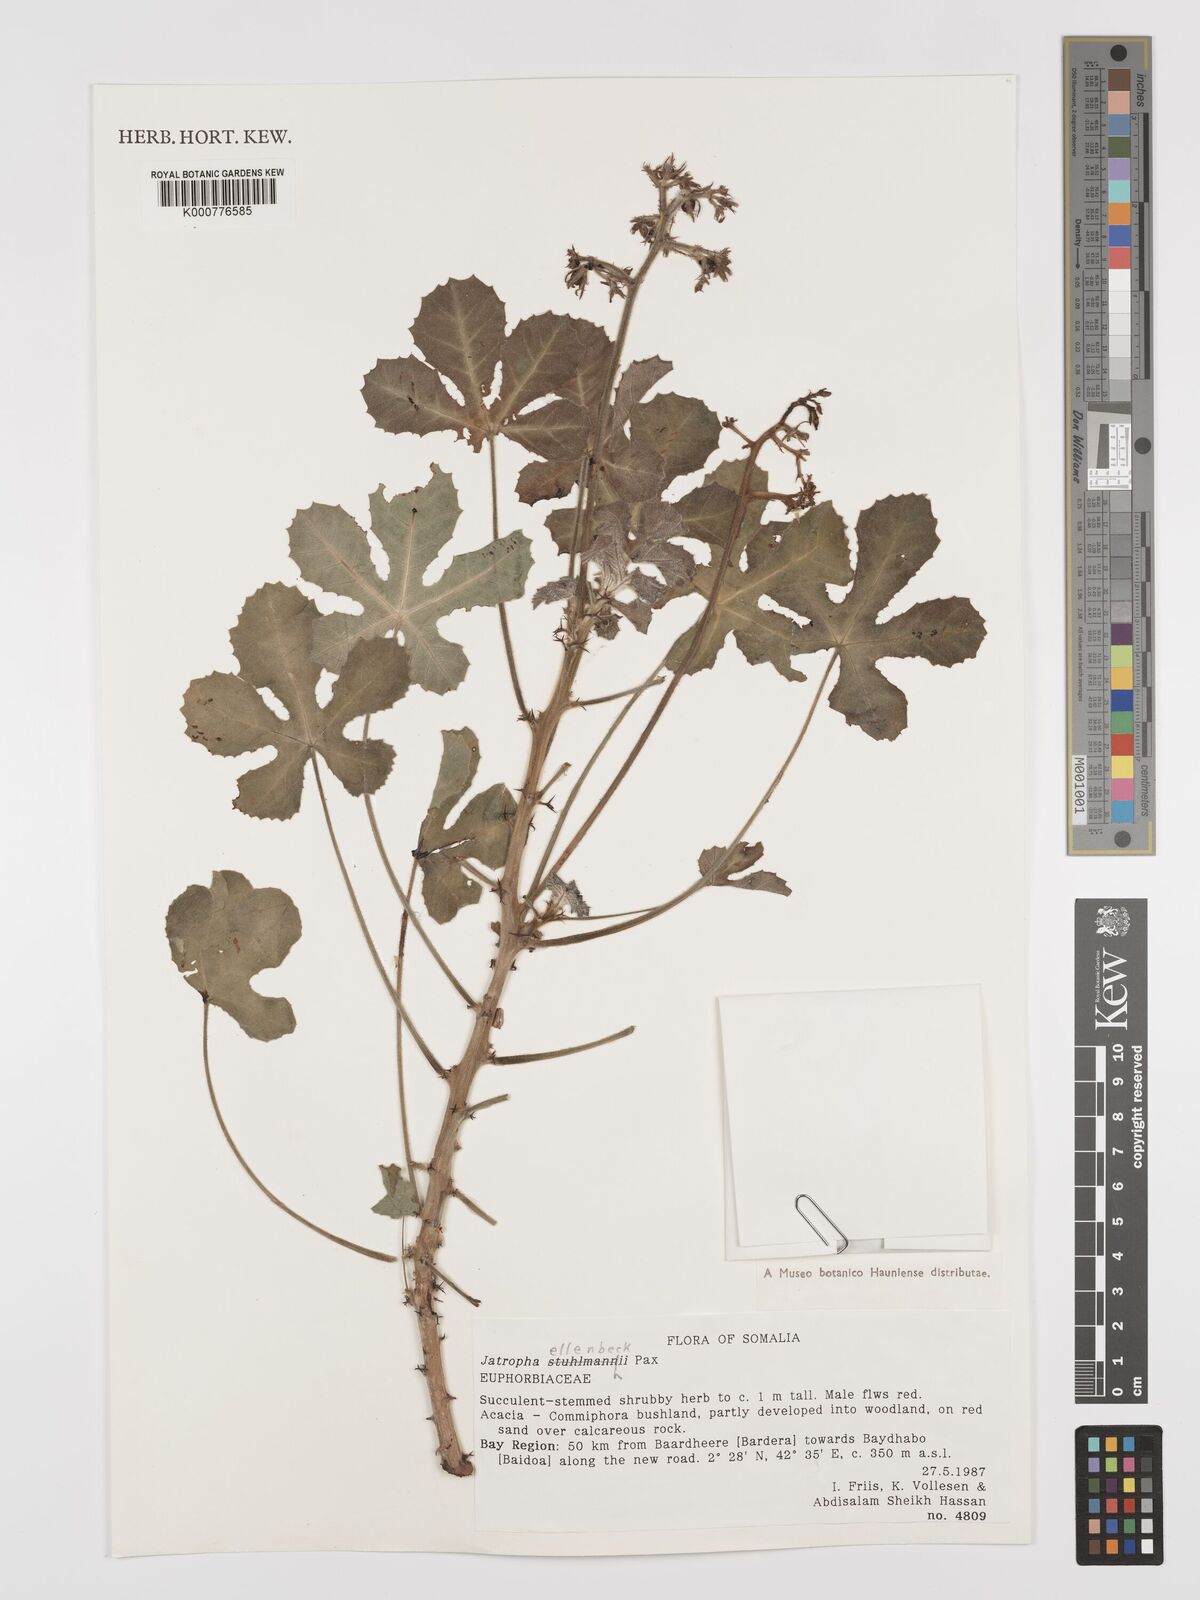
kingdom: Plantae
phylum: Tracheophyta
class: Magnoliopsida
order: Malpighiales
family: Euphorbiaceae
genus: Jatropha
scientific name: Jatropha ellenbeckii
